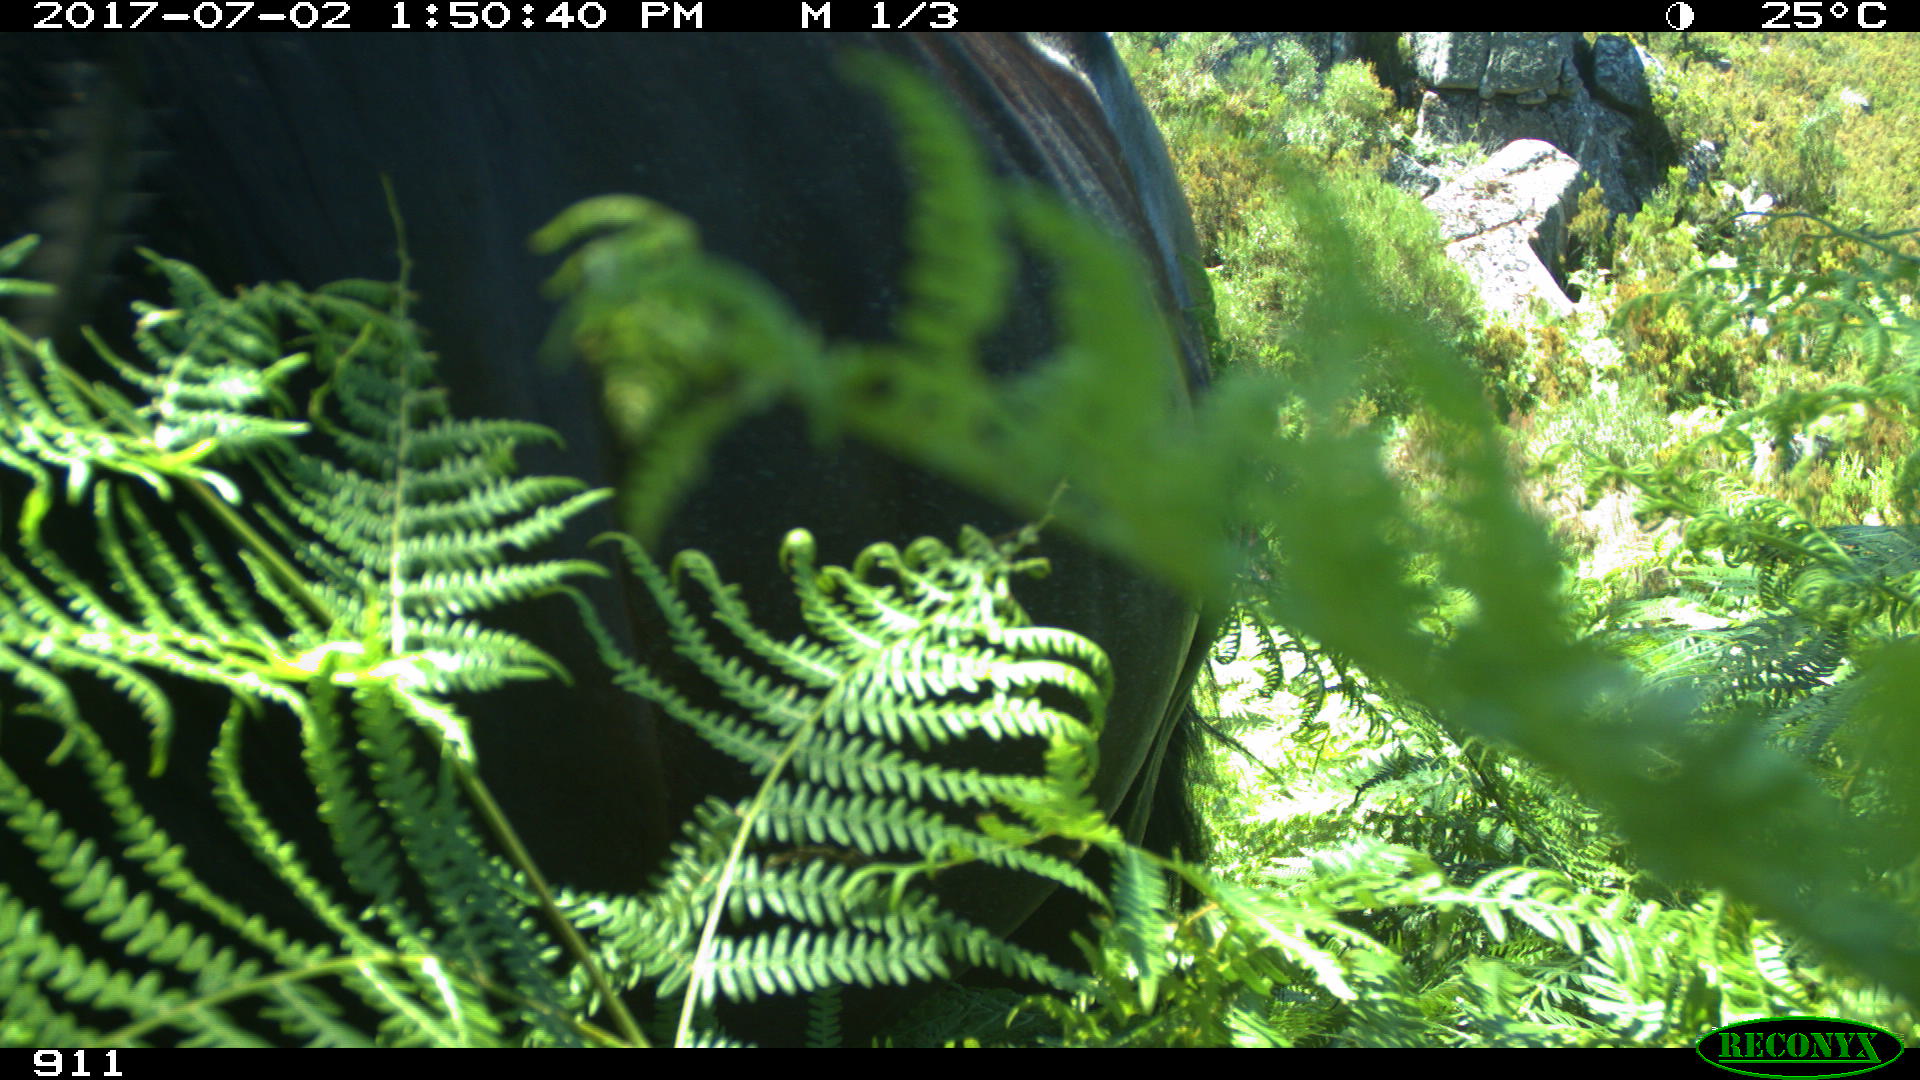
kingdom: Animalia
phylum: Chordata
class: Mammalia
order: Perissodactyla
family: Equidae
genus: Equus
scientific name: Equus caballus
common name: Horse
